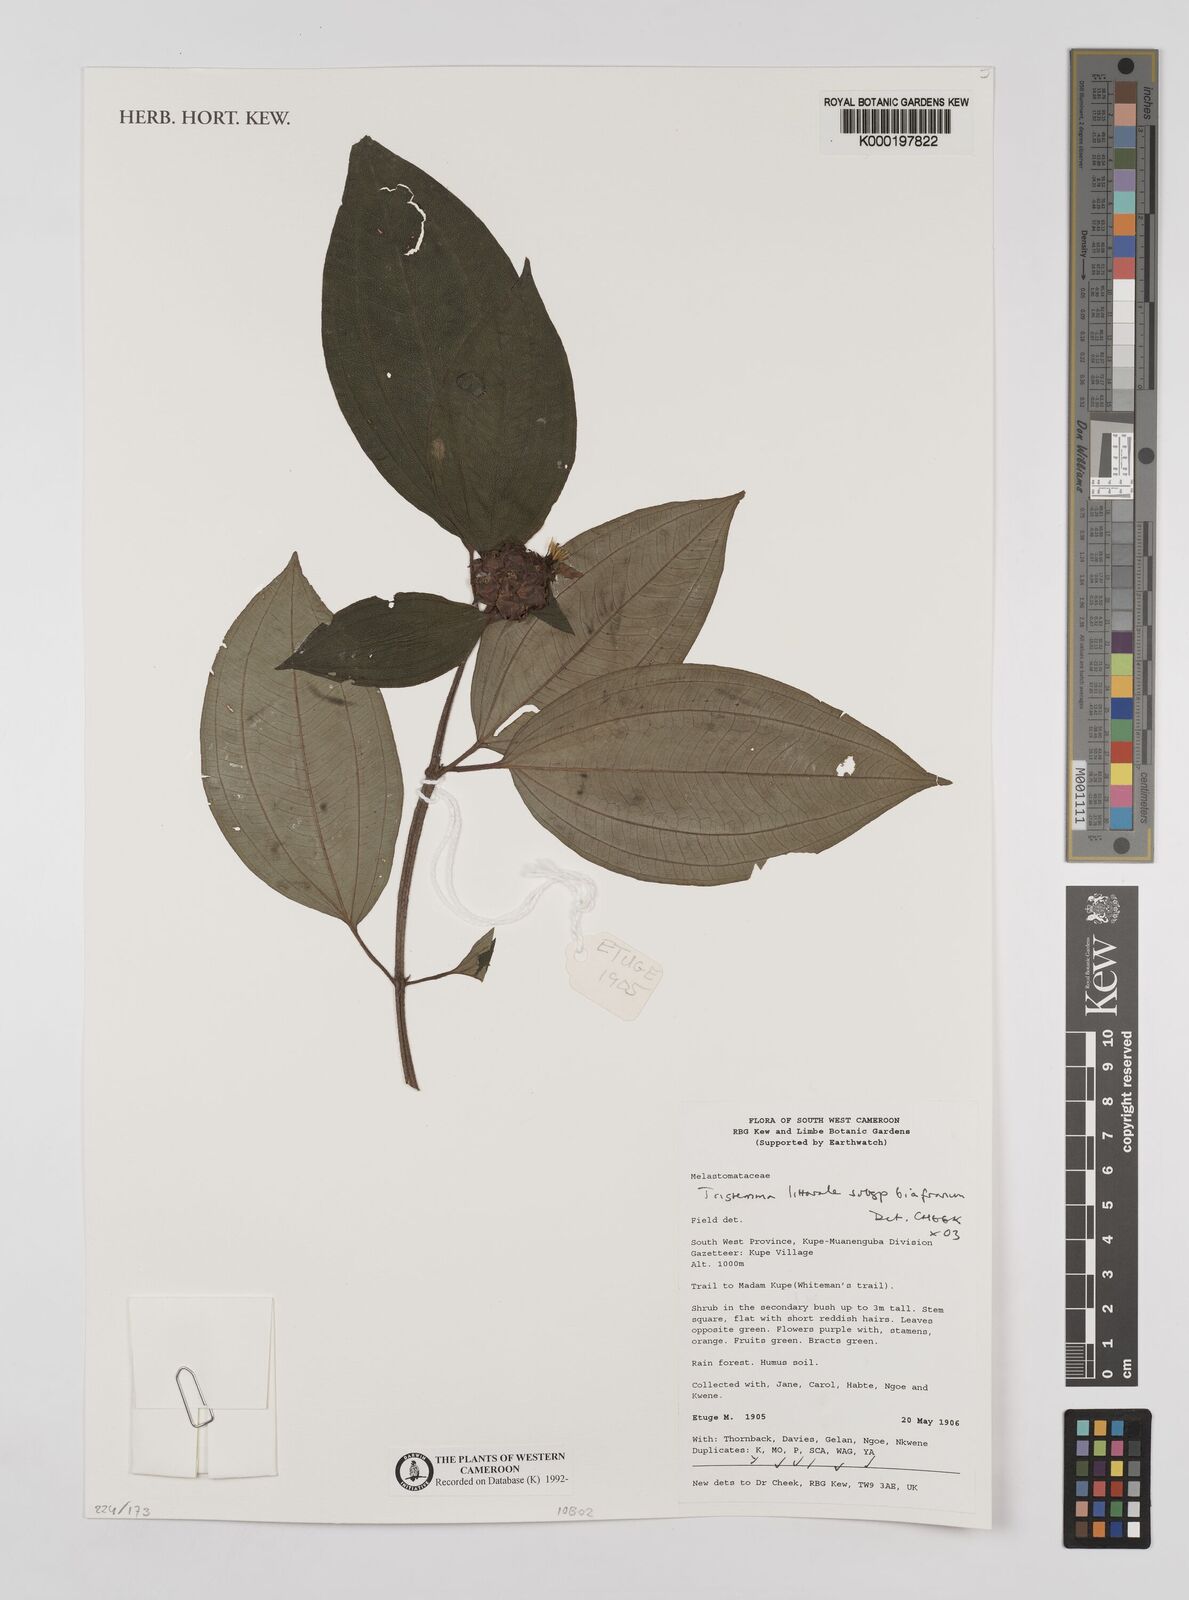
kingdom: Plantae
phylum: Tracheophyta
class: Magnoliopsida
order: Myrtales
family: Melastomataceae
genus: Tristemma
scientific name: Tristemma littorale
